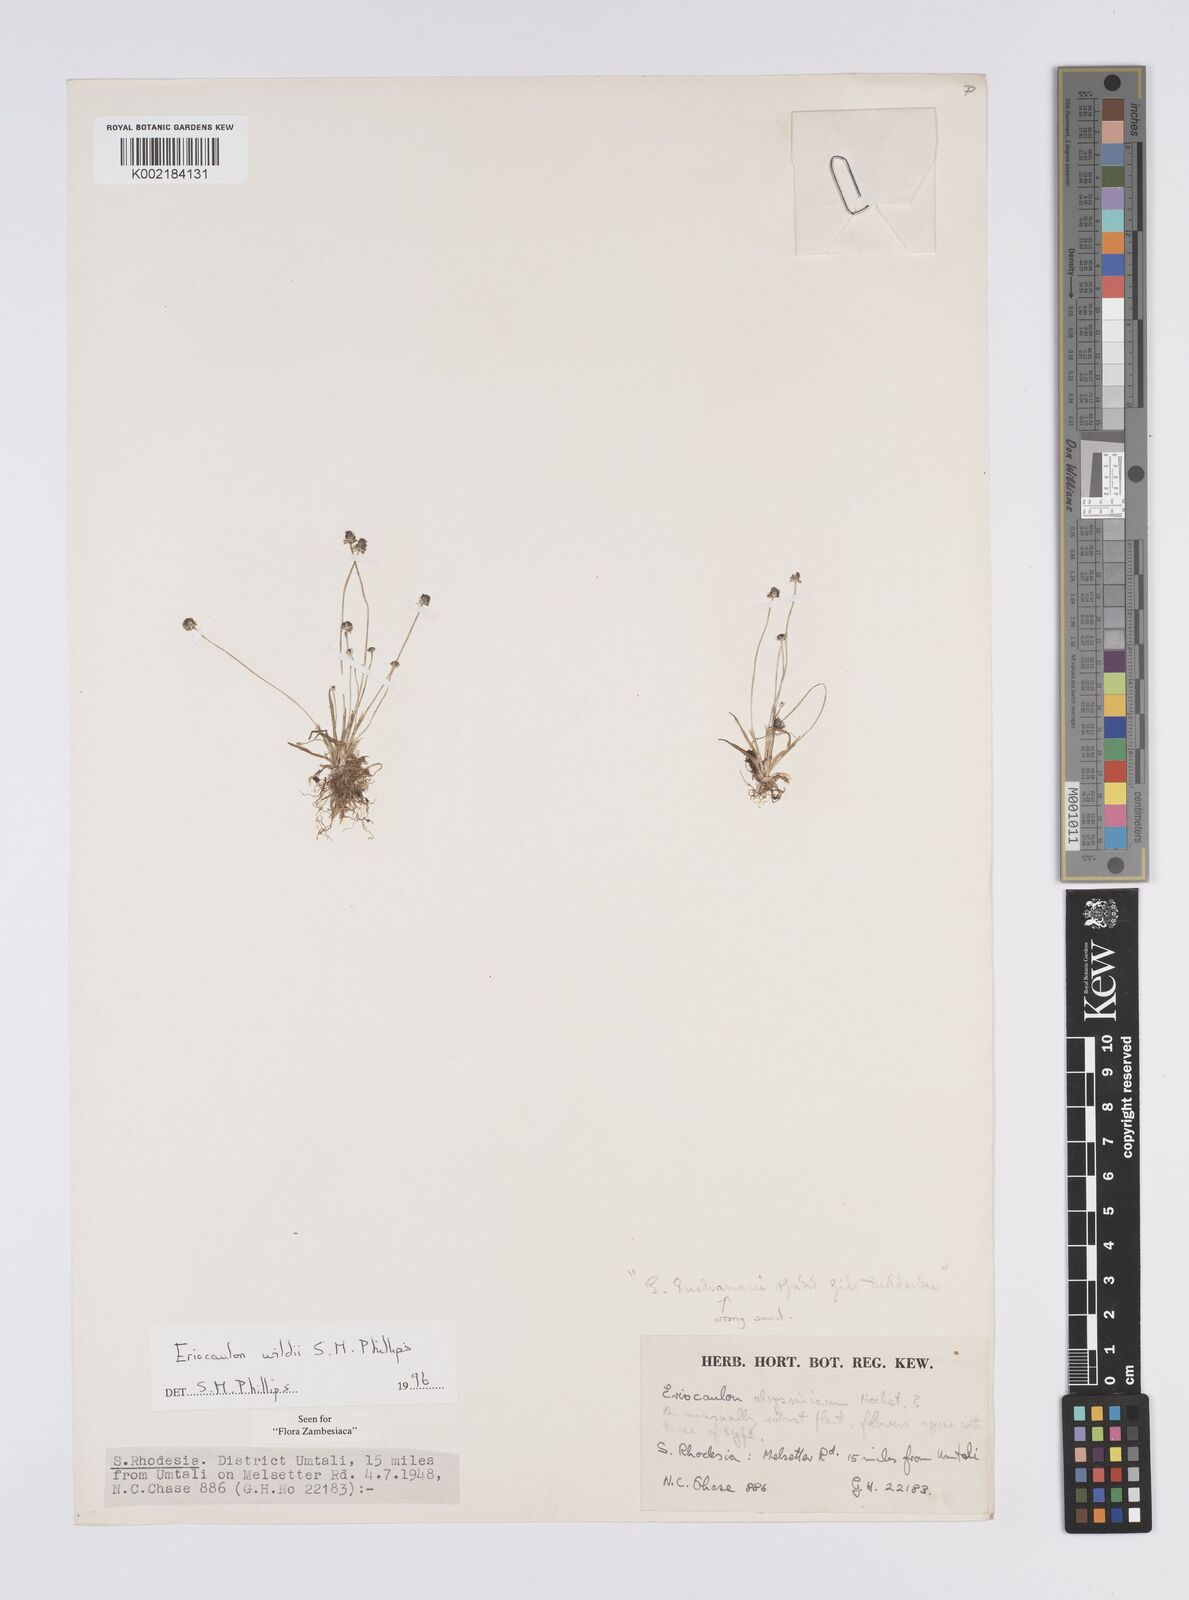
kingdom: Plantae
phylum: Tracheophyta
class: Liliopsida
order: Poales
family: Eriocaulaceae
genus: Eriocaulon
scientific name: Eriocaulon wildii
